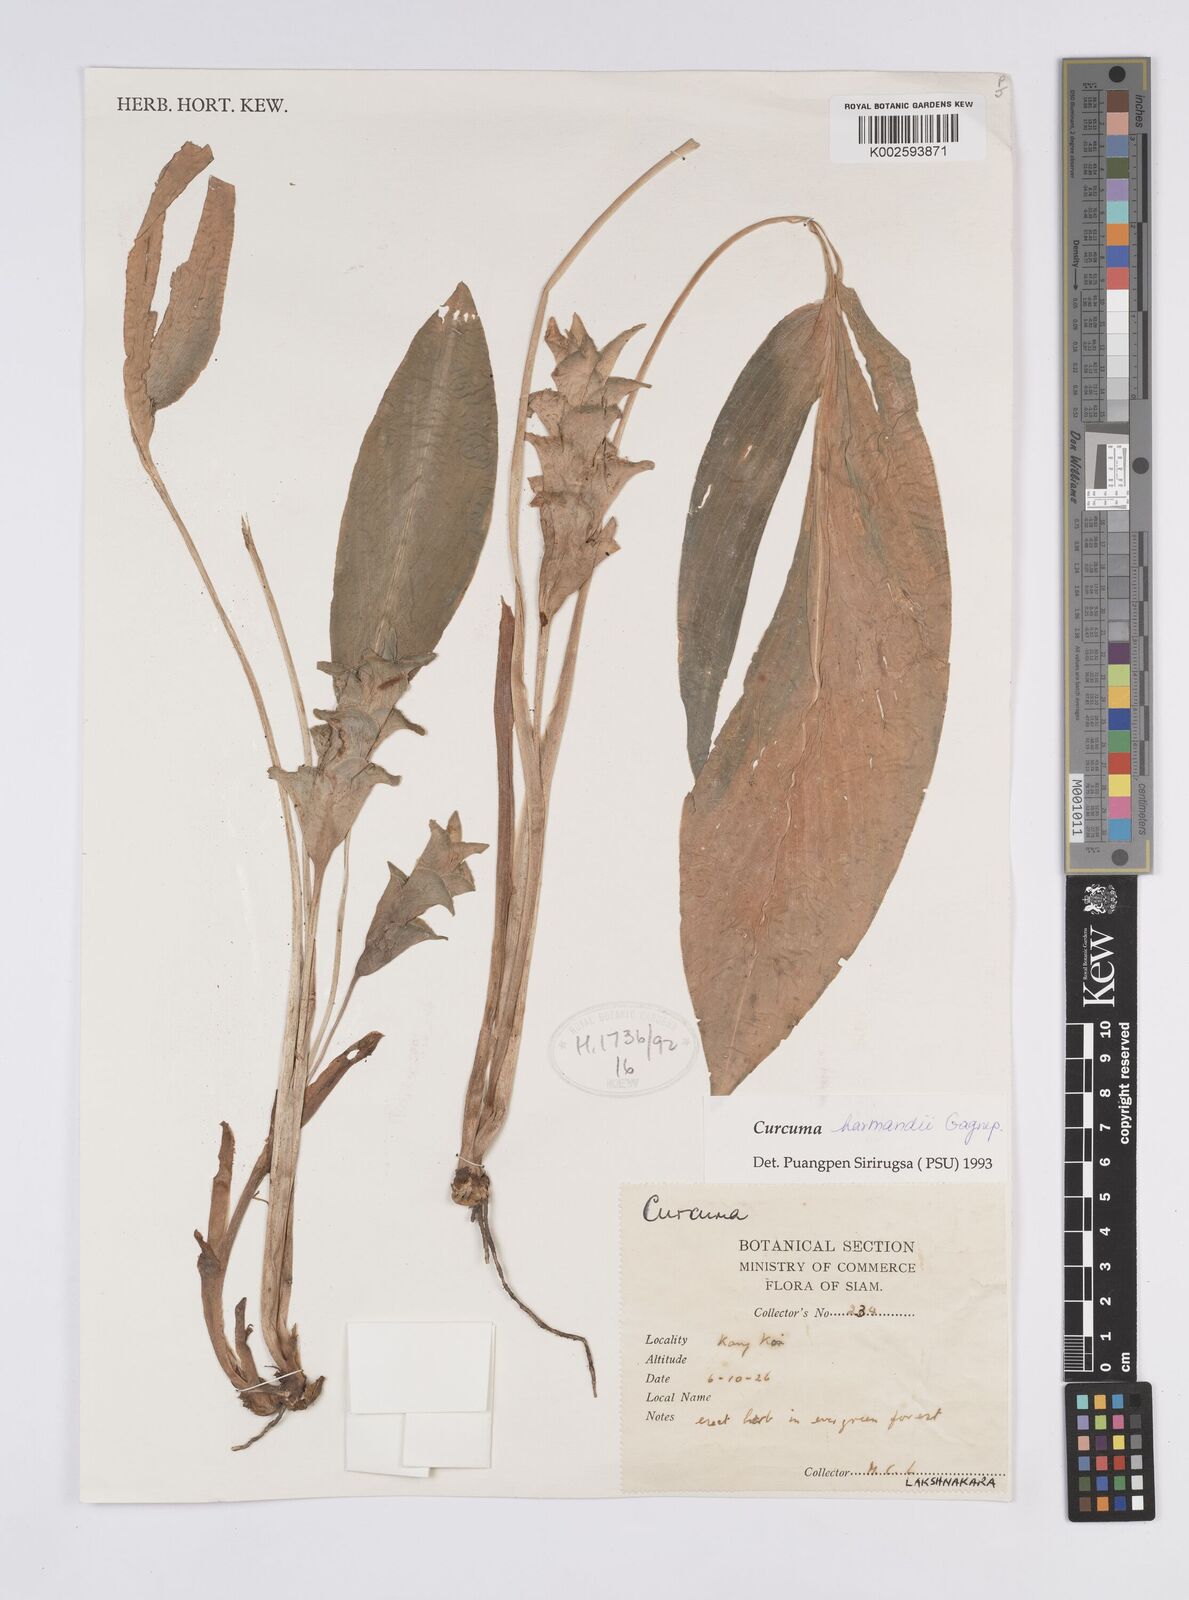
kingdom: Plantae
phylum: Tracheophyta
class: Liliopsida
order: Zingiberales
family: Zingiberaceae
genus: Curcuma
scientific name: Curcuma harmandii
